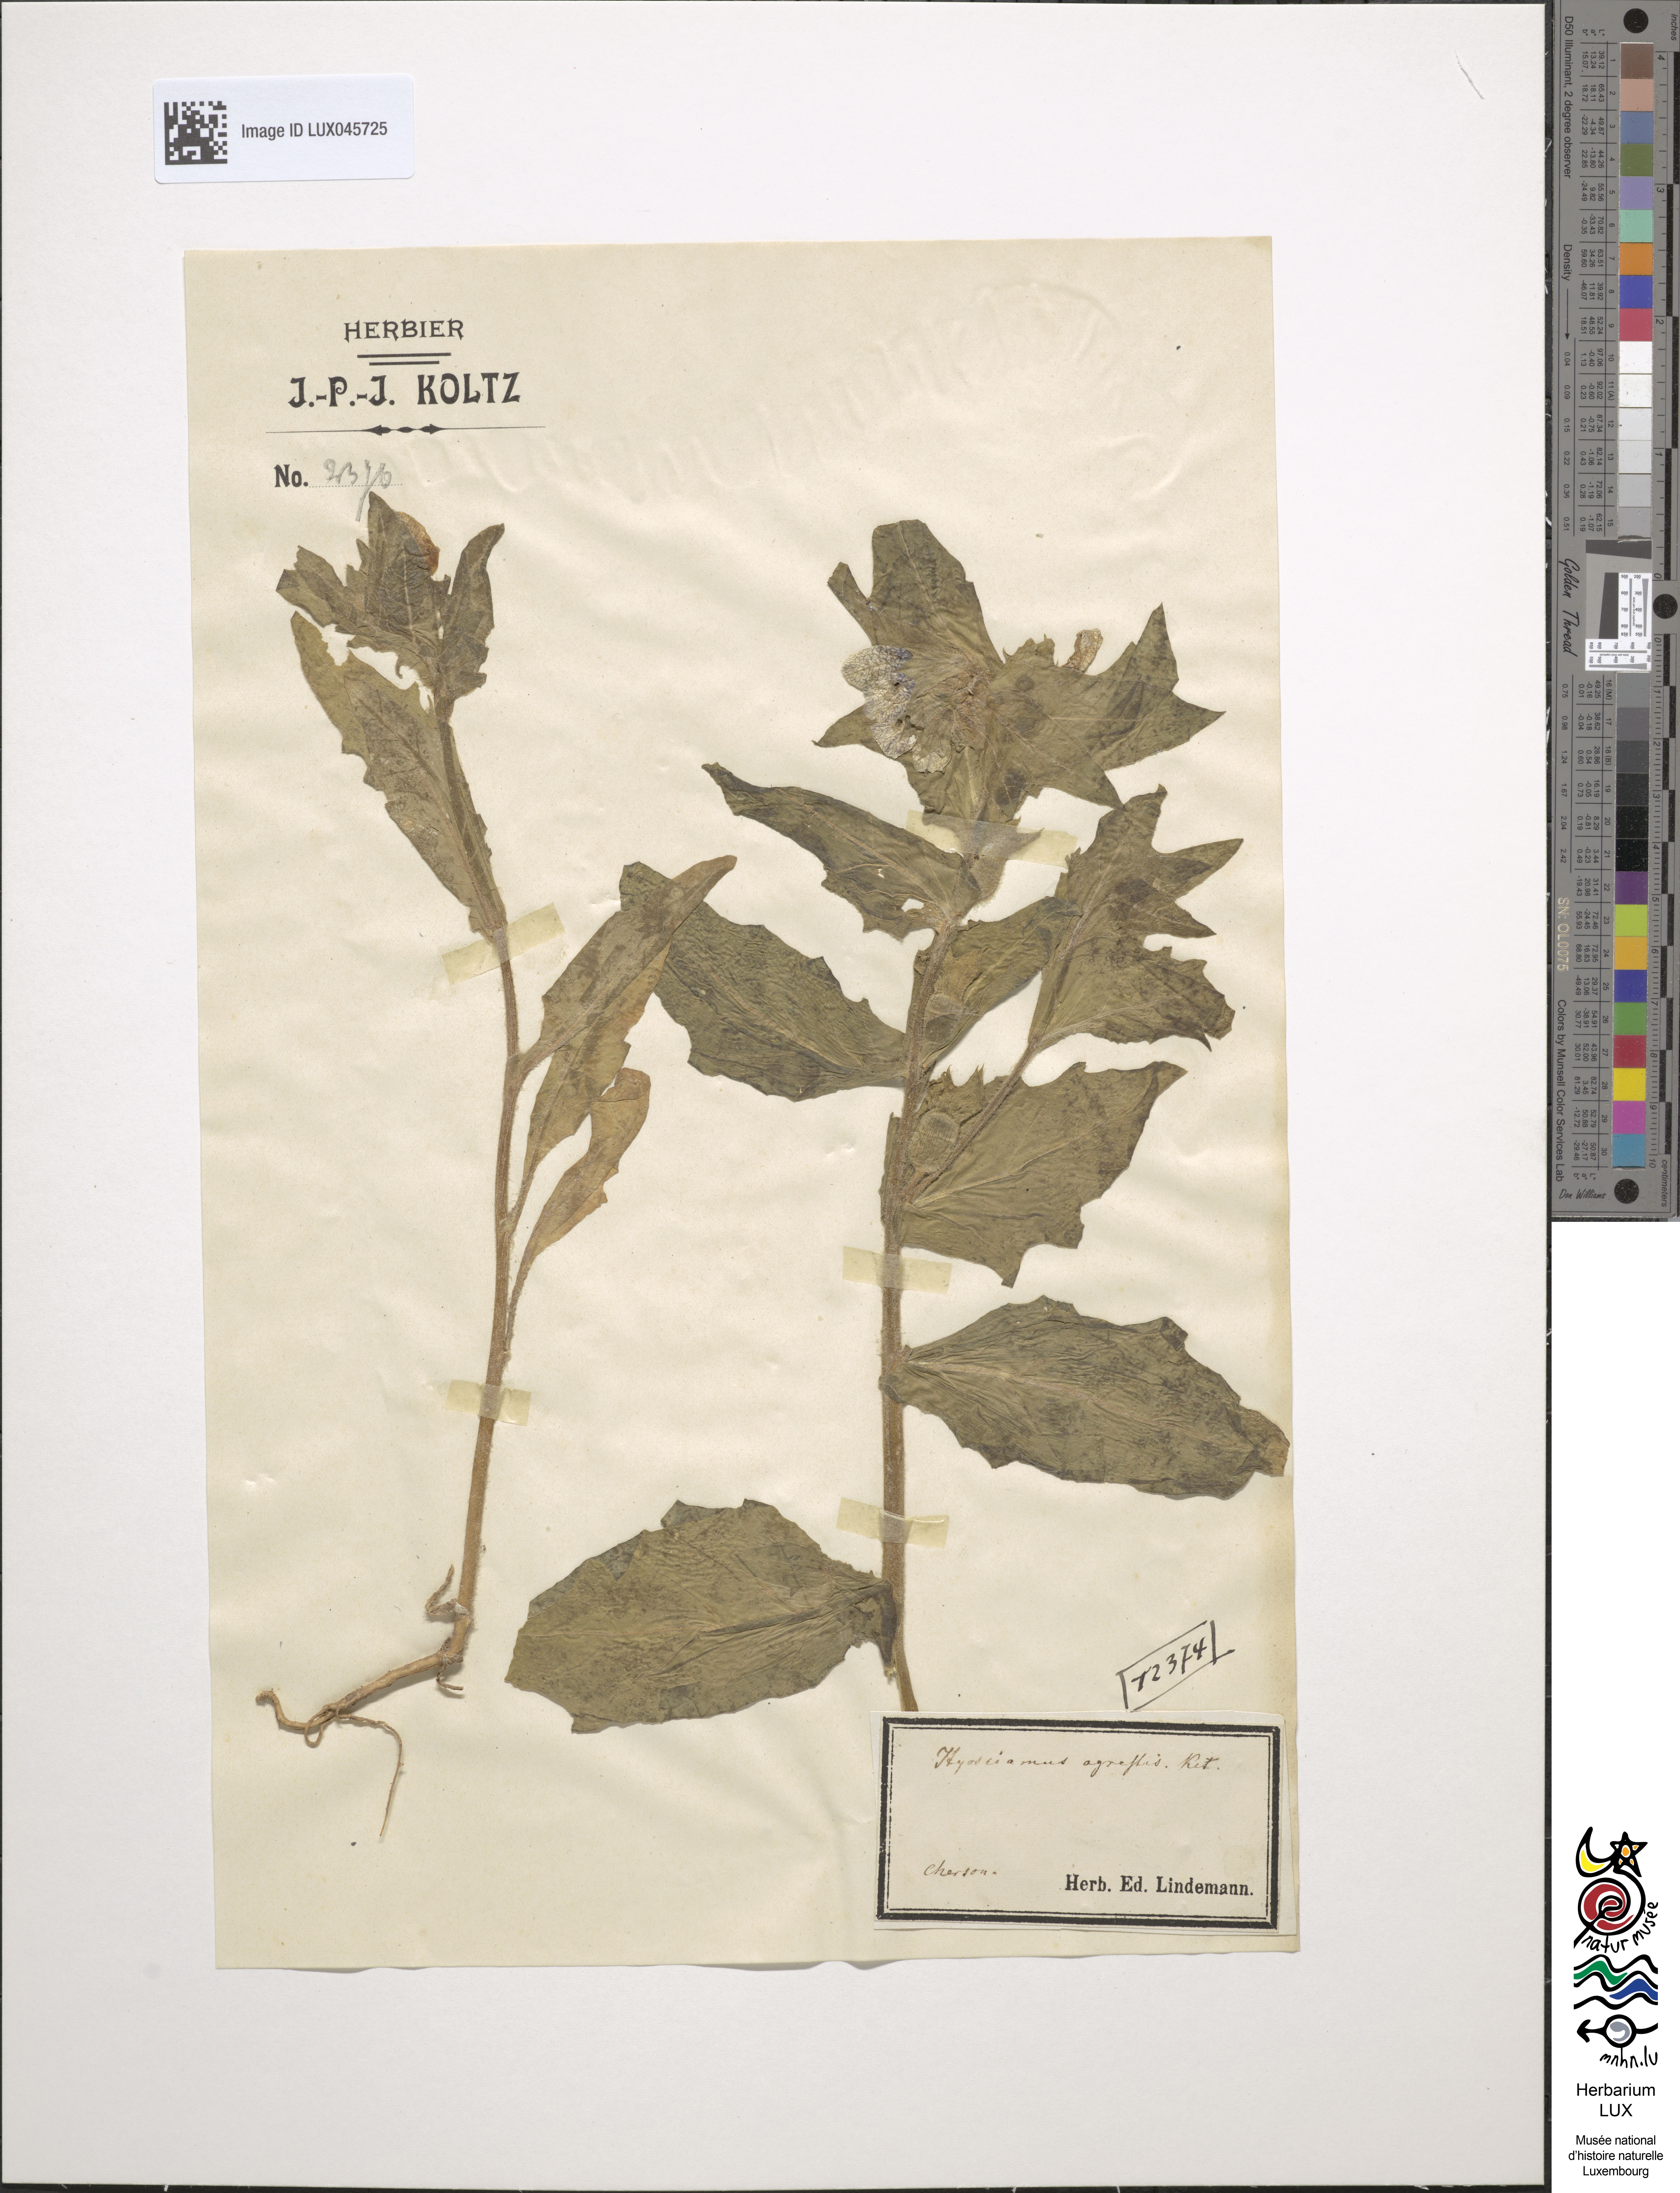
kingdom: Plantae
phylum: Tracheophyta
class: Magnoliopsida
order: Solanales
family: Solanaceae
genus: Hyoscyamus
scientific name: Hyoscyamus niger
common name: Henbane
